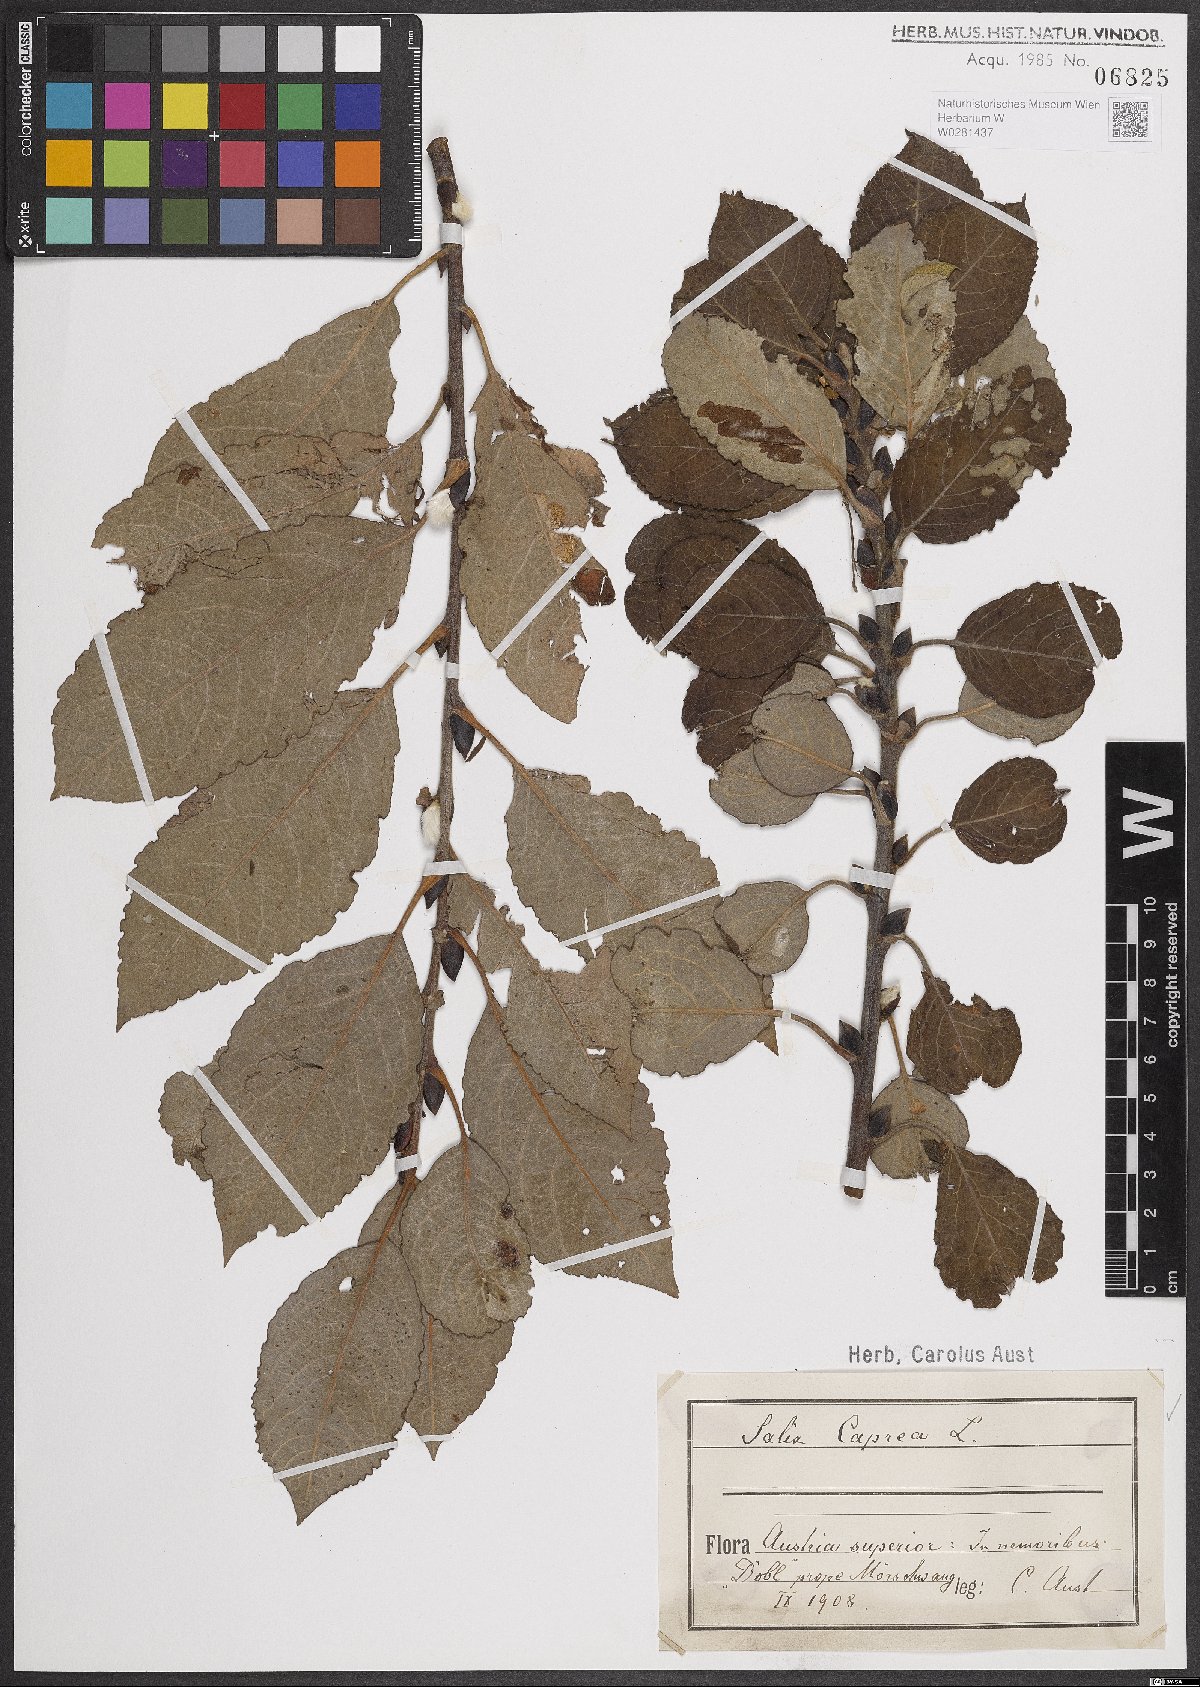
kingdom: Plantae
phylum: Tracheophyta
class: Magnoliopsida
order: Malpighiales
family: Salicaceae
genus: Salix
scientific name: Salix caprea
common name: Goat willow
